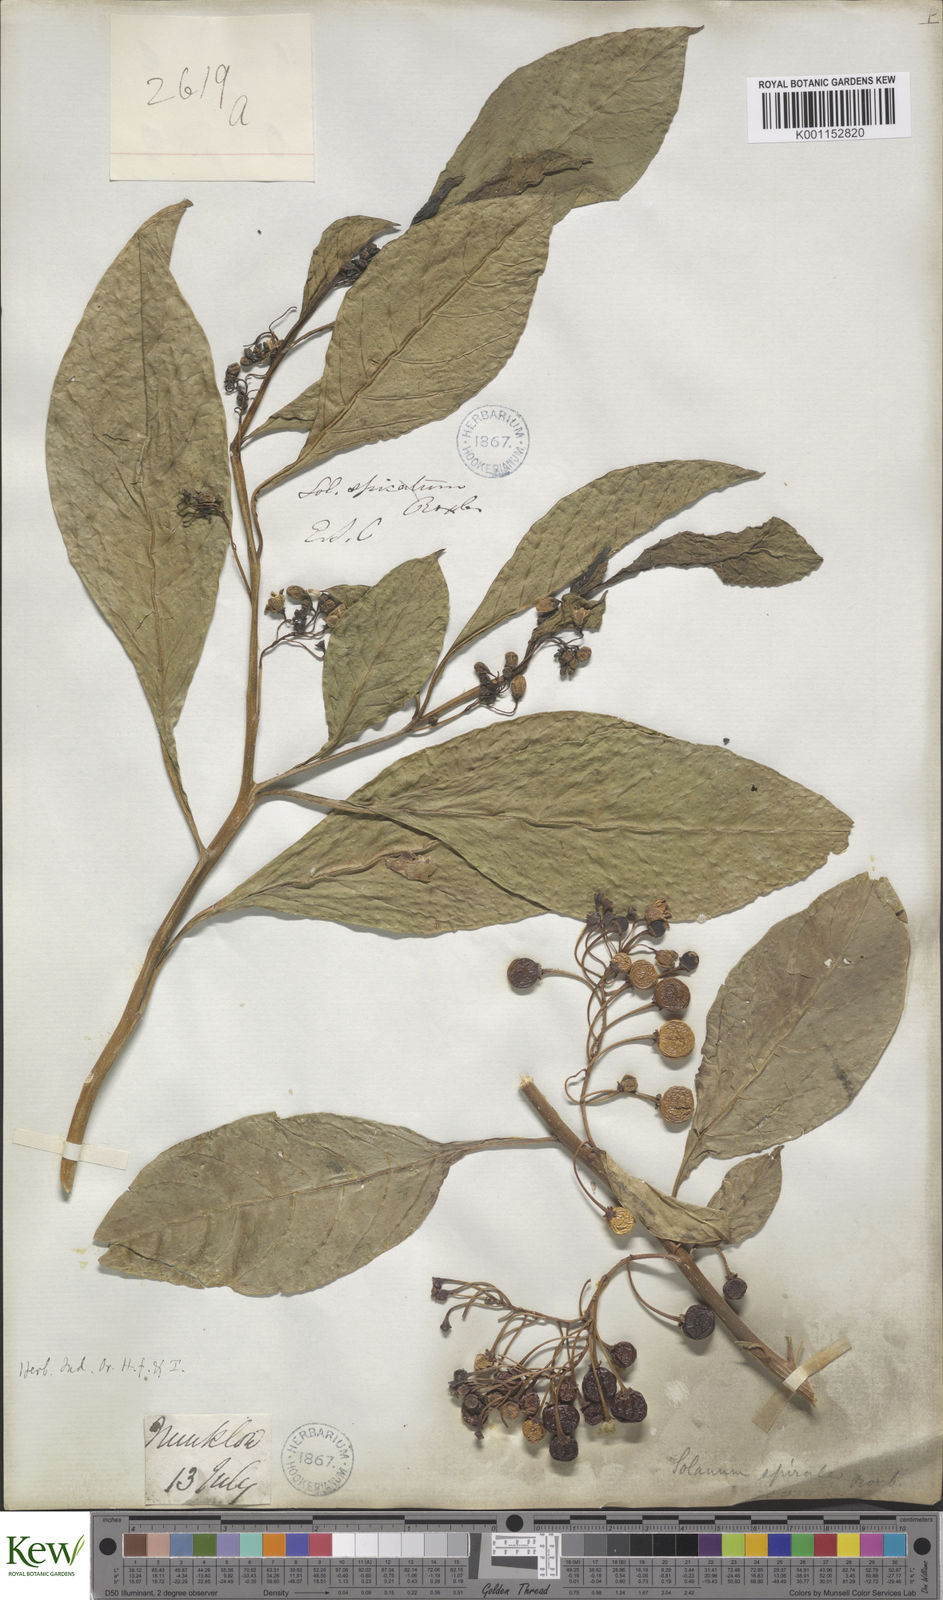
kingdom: Plantae
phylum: Tracheophyta
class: Magnoliopsida
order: Solanales
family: Solanaceae
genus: Solanum
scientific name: Solanum spirale
